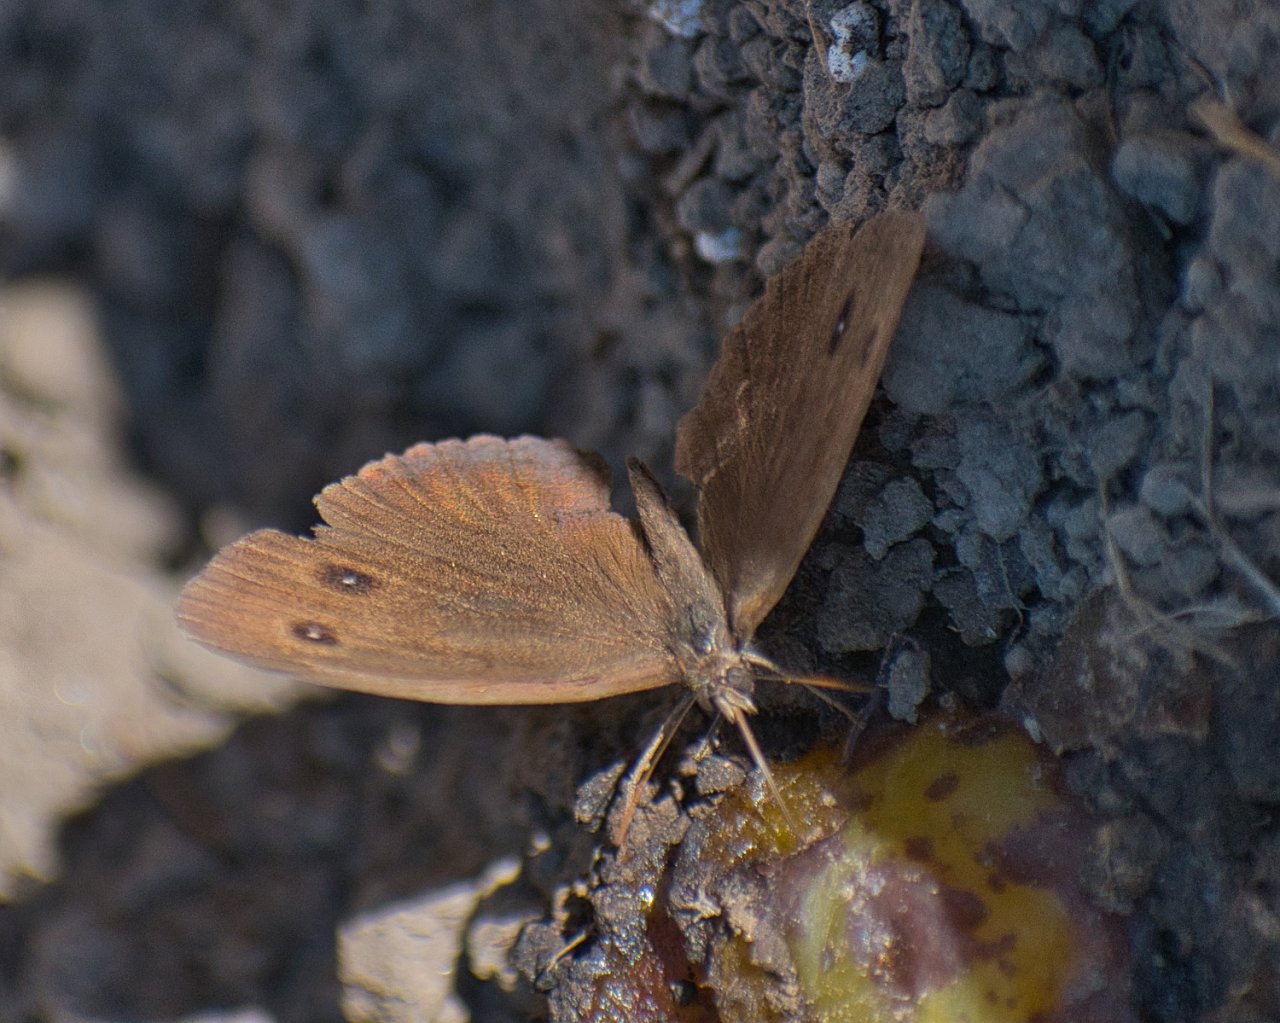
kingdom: Animalia
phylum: Arthropoda
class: Insecta
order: Lepidoptera
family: Nymphalidae
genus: Cercyonis
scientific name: Cercyonis pegala
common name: Common Wood-Nymph
